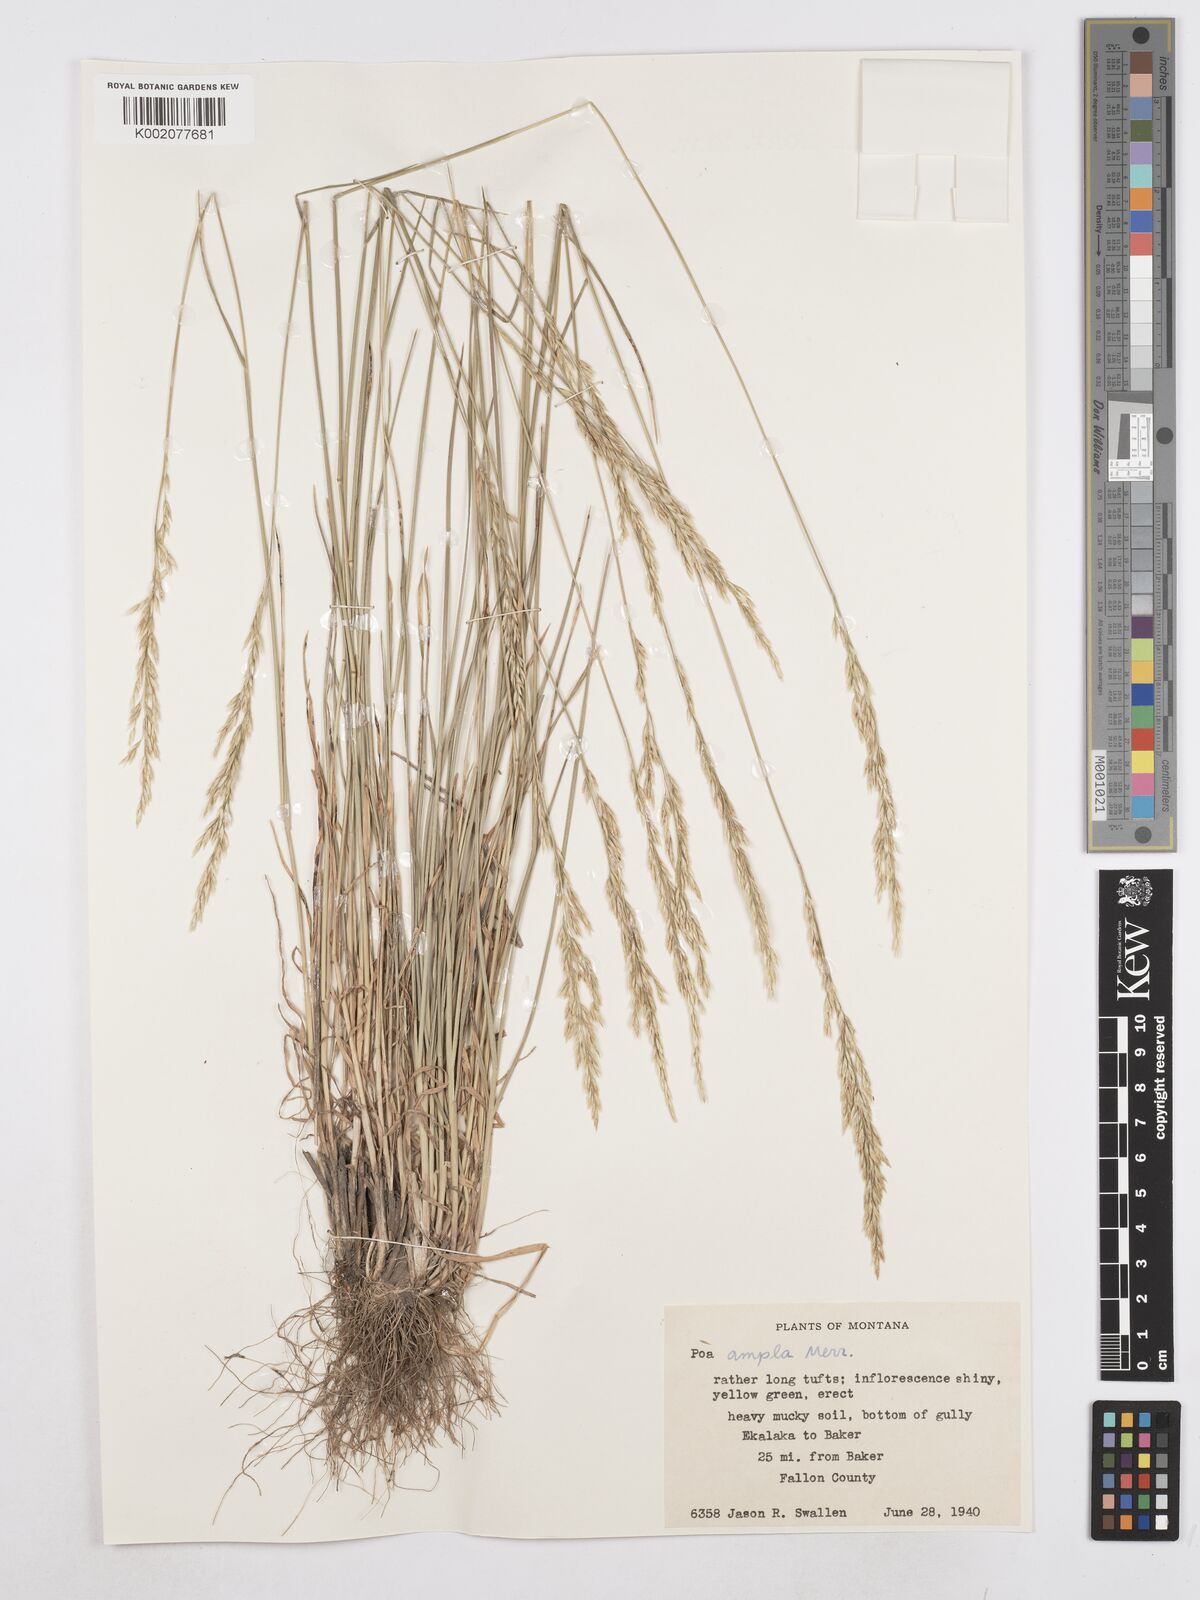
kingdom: Plantae
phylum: Tracheophyta
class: Liliopsida
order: Poales
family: Poaceae
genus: Poa
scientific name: Poa secunda
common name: Sandberg bluegrass
